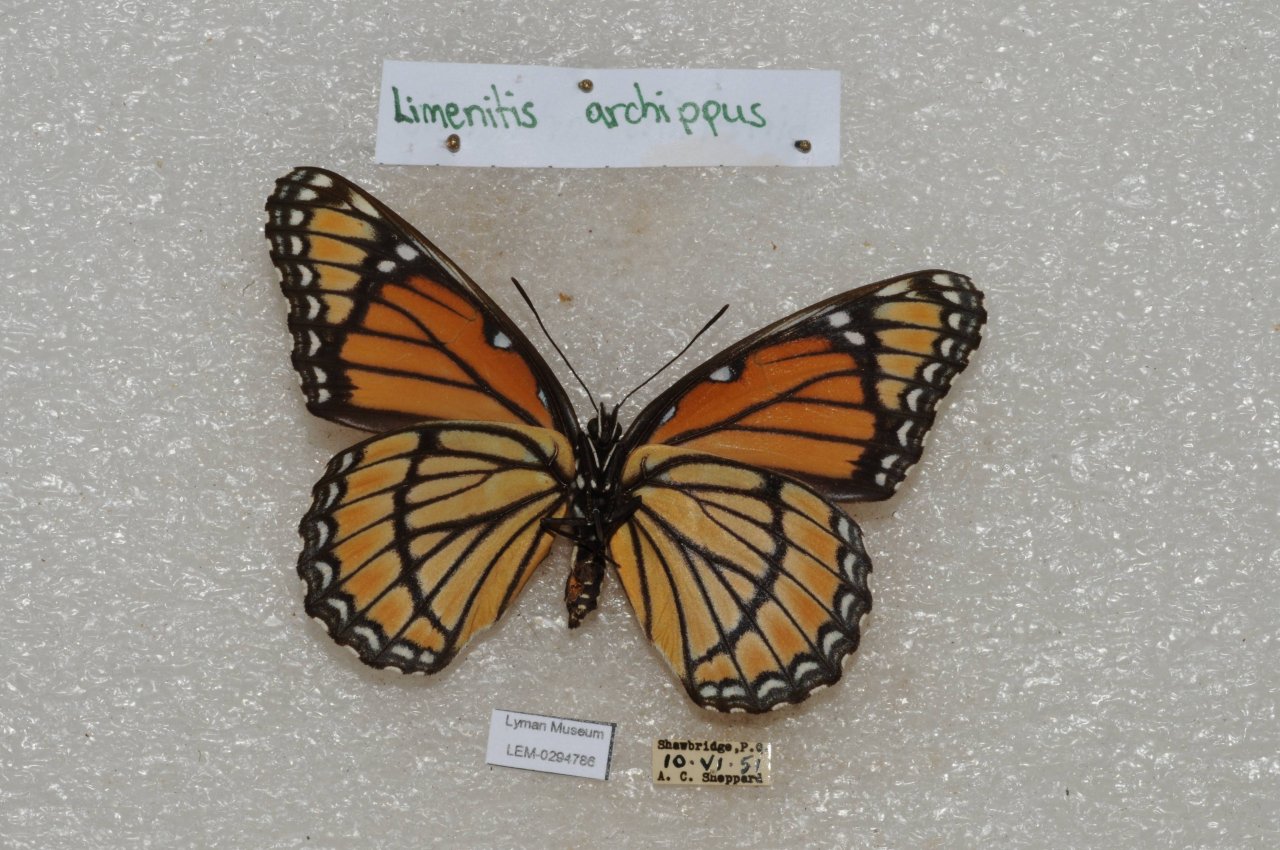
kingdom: Animalia
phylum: Arthropoda
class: Insecta
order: Lepidoptera
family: Nymphalidae
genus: Limenitis
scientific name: Limenitis archippus
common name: Viceroy
